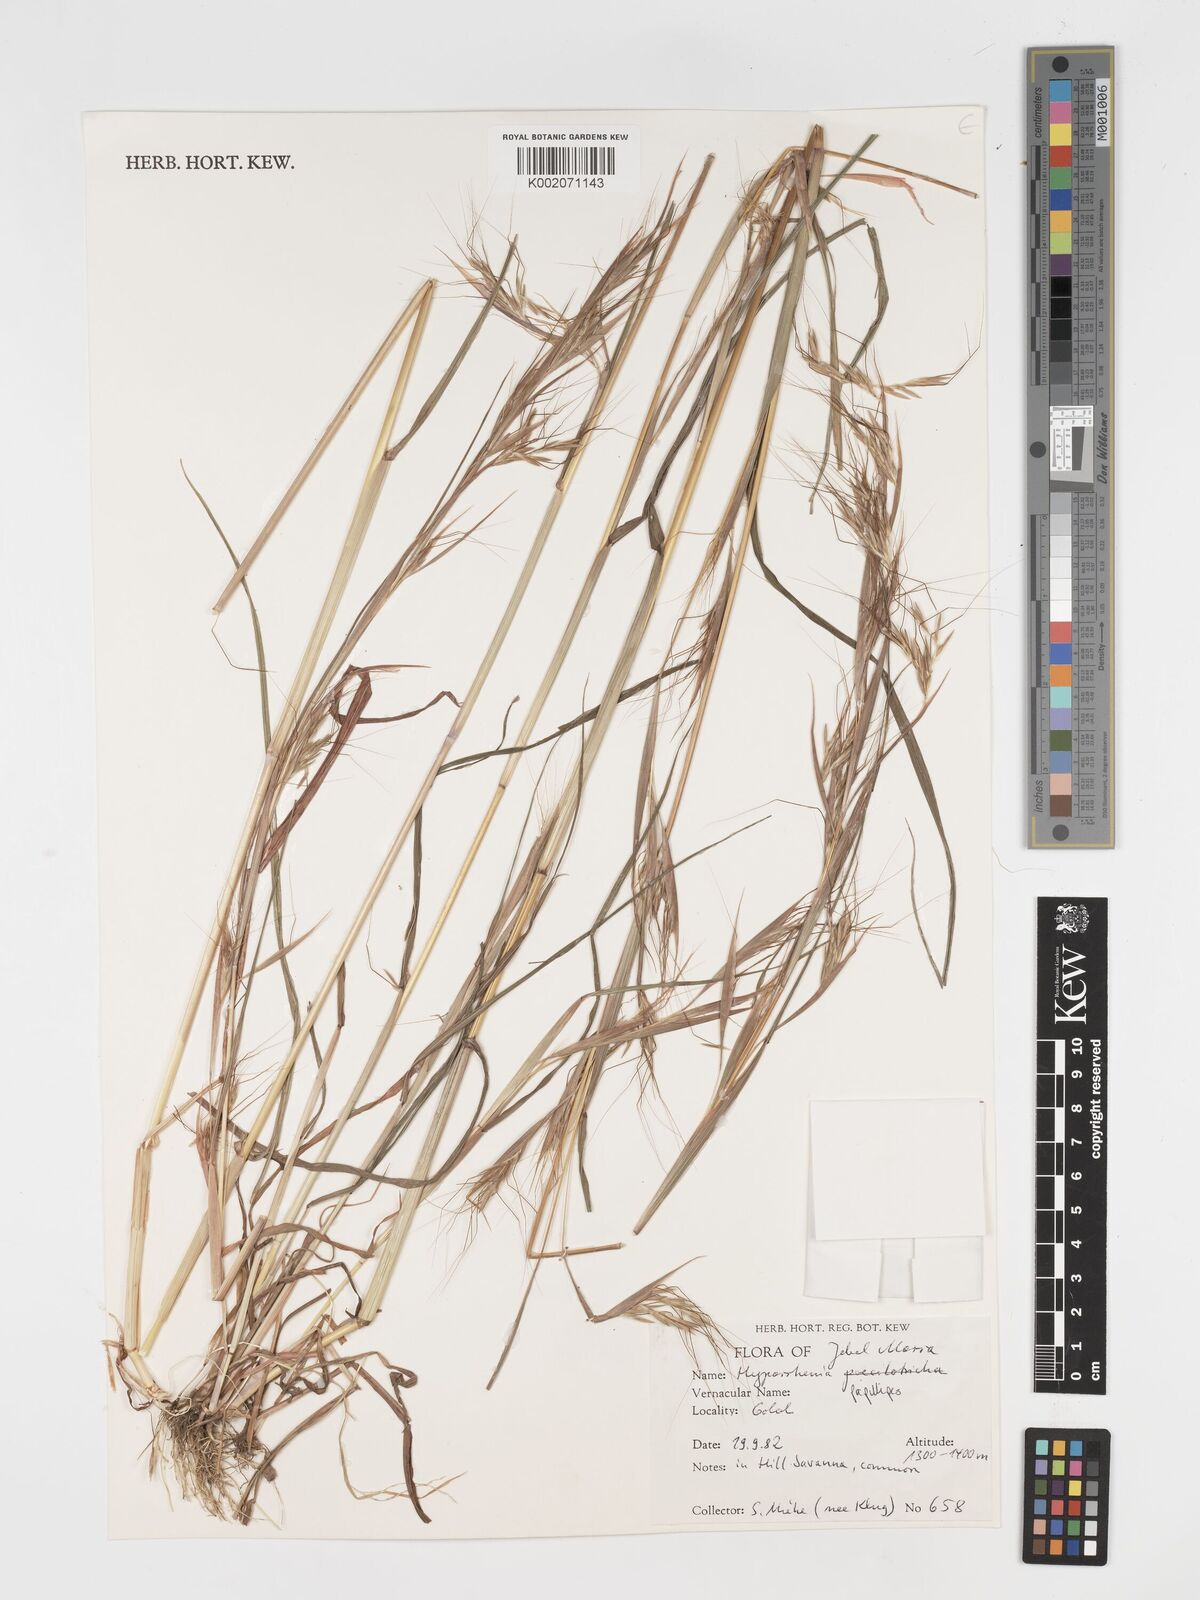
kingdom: Plantae
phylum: Tracheophyta
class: Liliopsida
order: Poales
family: Poaceae
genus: Hyparrhenia
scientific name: Hyparrhenia papillipes
